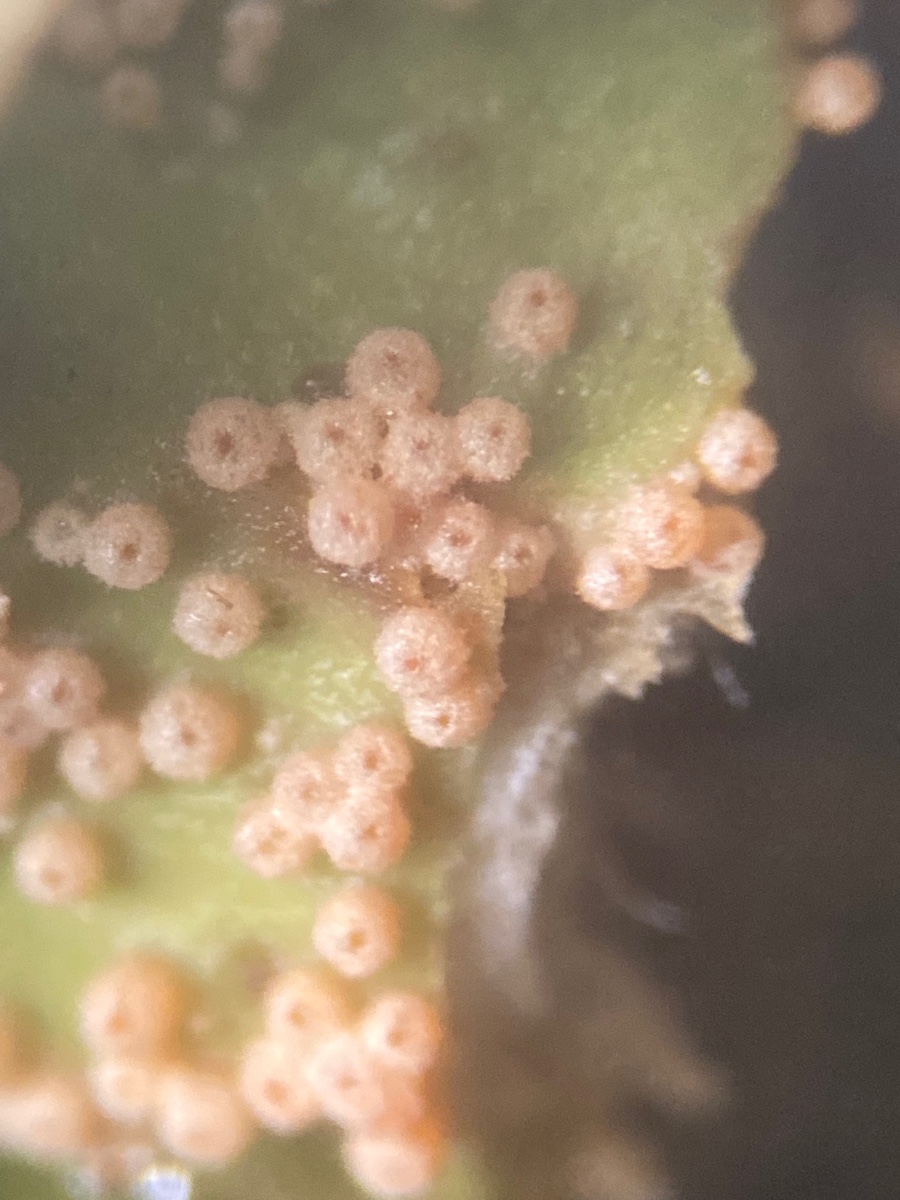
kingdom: Fungi
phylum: Ascomycota
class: Sordariomycetes
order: Hypocreales
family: Bionectriaceae
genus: Nectriopsis
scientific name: Nectriopsis lecanodes
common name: skjoldlav-gyldenkerne
